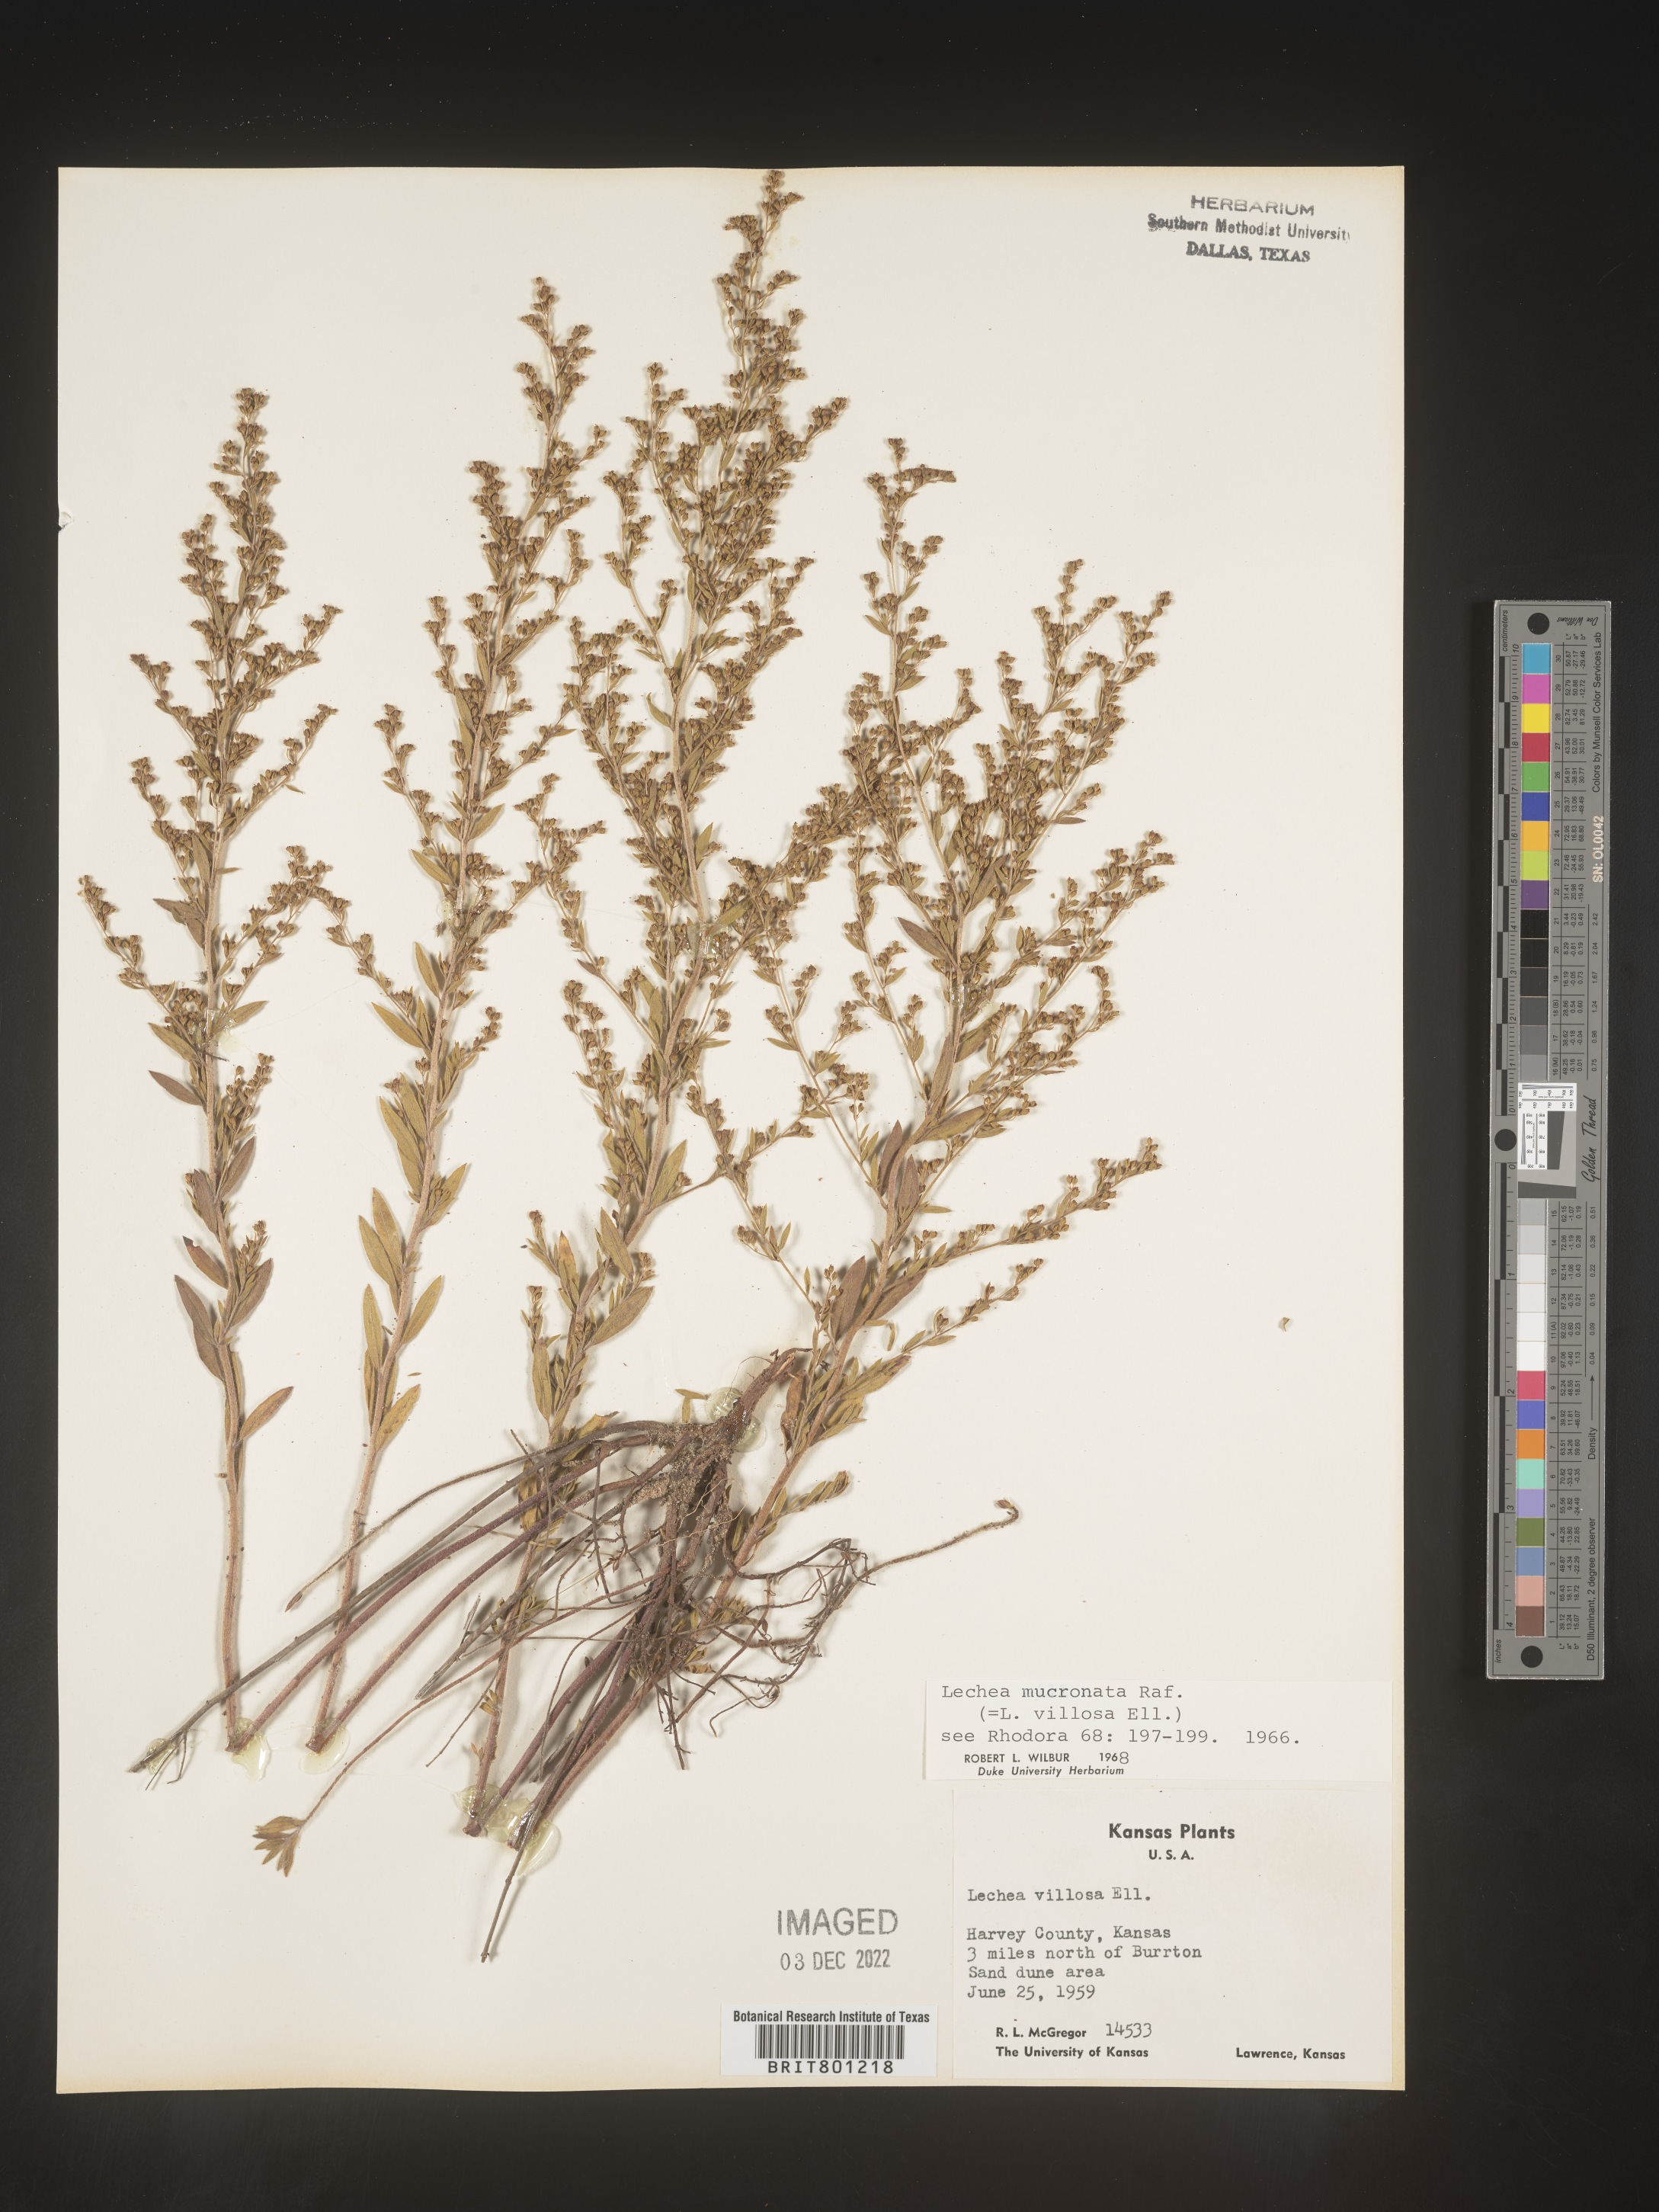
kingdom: Plantae
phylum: Tracheophyta
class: Magnoliopsida
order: Malvales
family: Cistaceae
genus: Lechea
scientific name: Lechea mucronata
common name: Hairy pinweed
